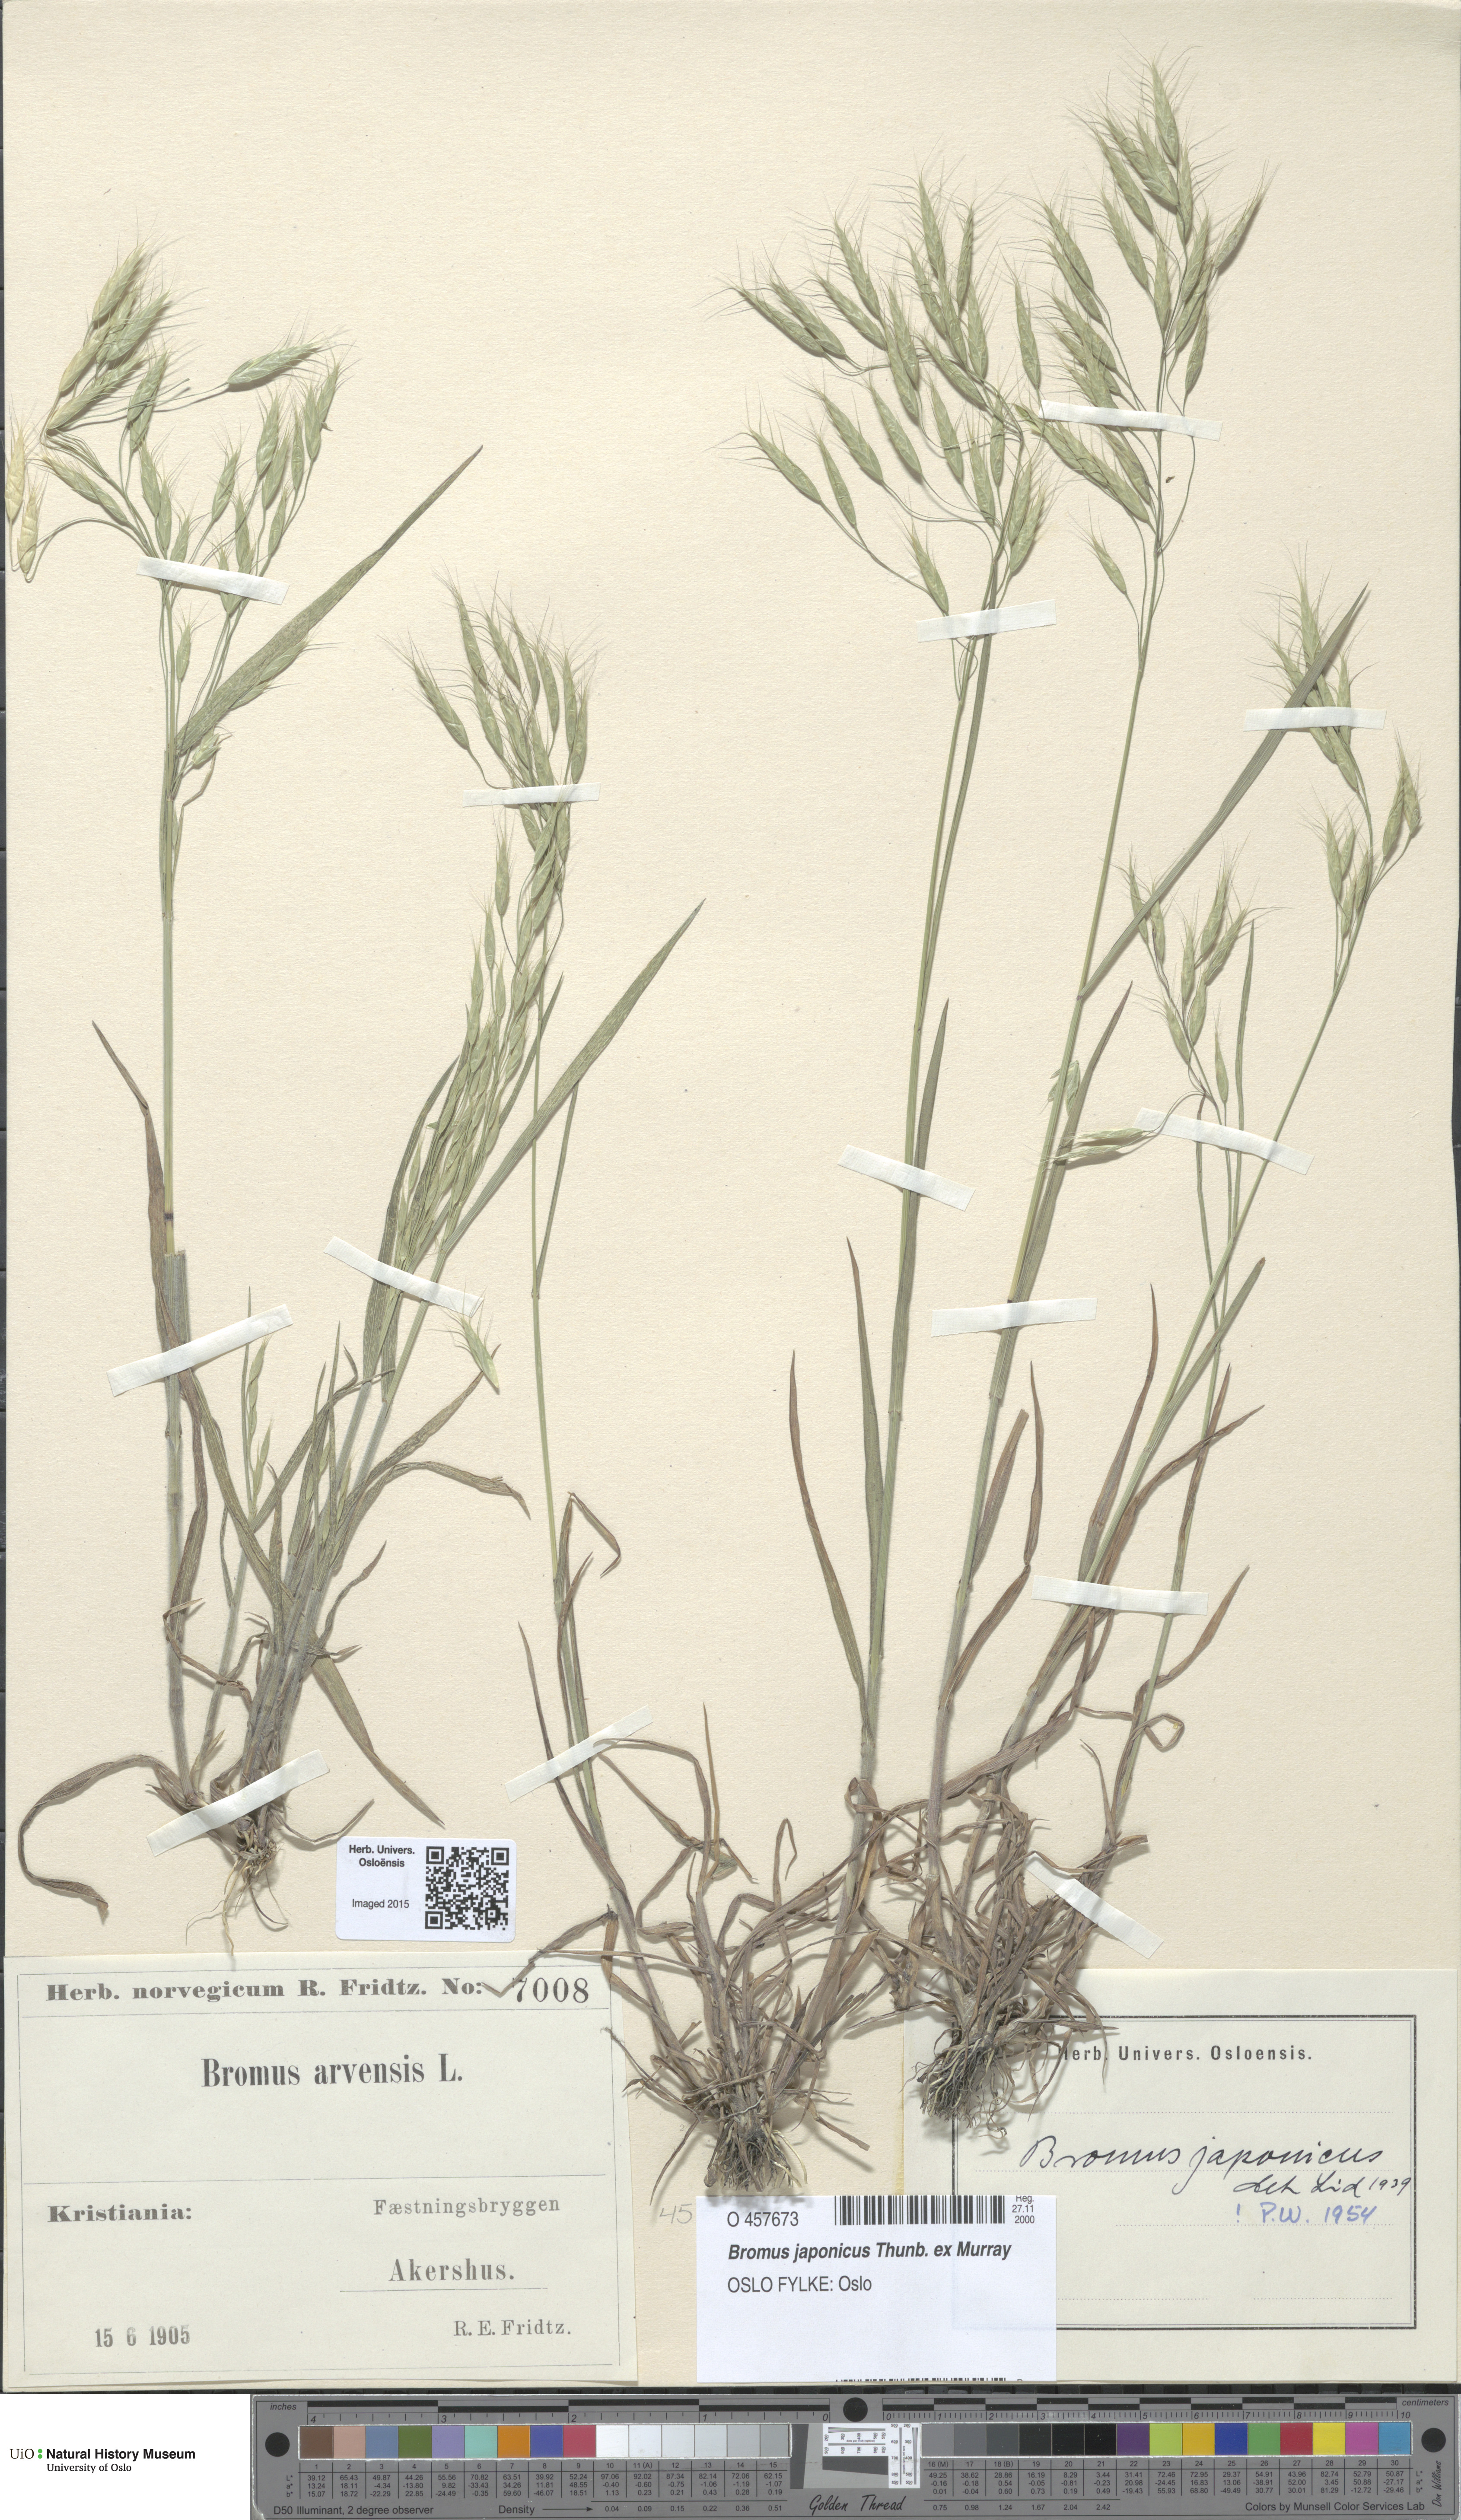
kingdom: Plantae
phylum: Tracheophyta
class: Liliopsida
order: Poales
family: Poaceae
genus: Bromus
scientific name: Bromus japonicus
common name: Japanese brome
